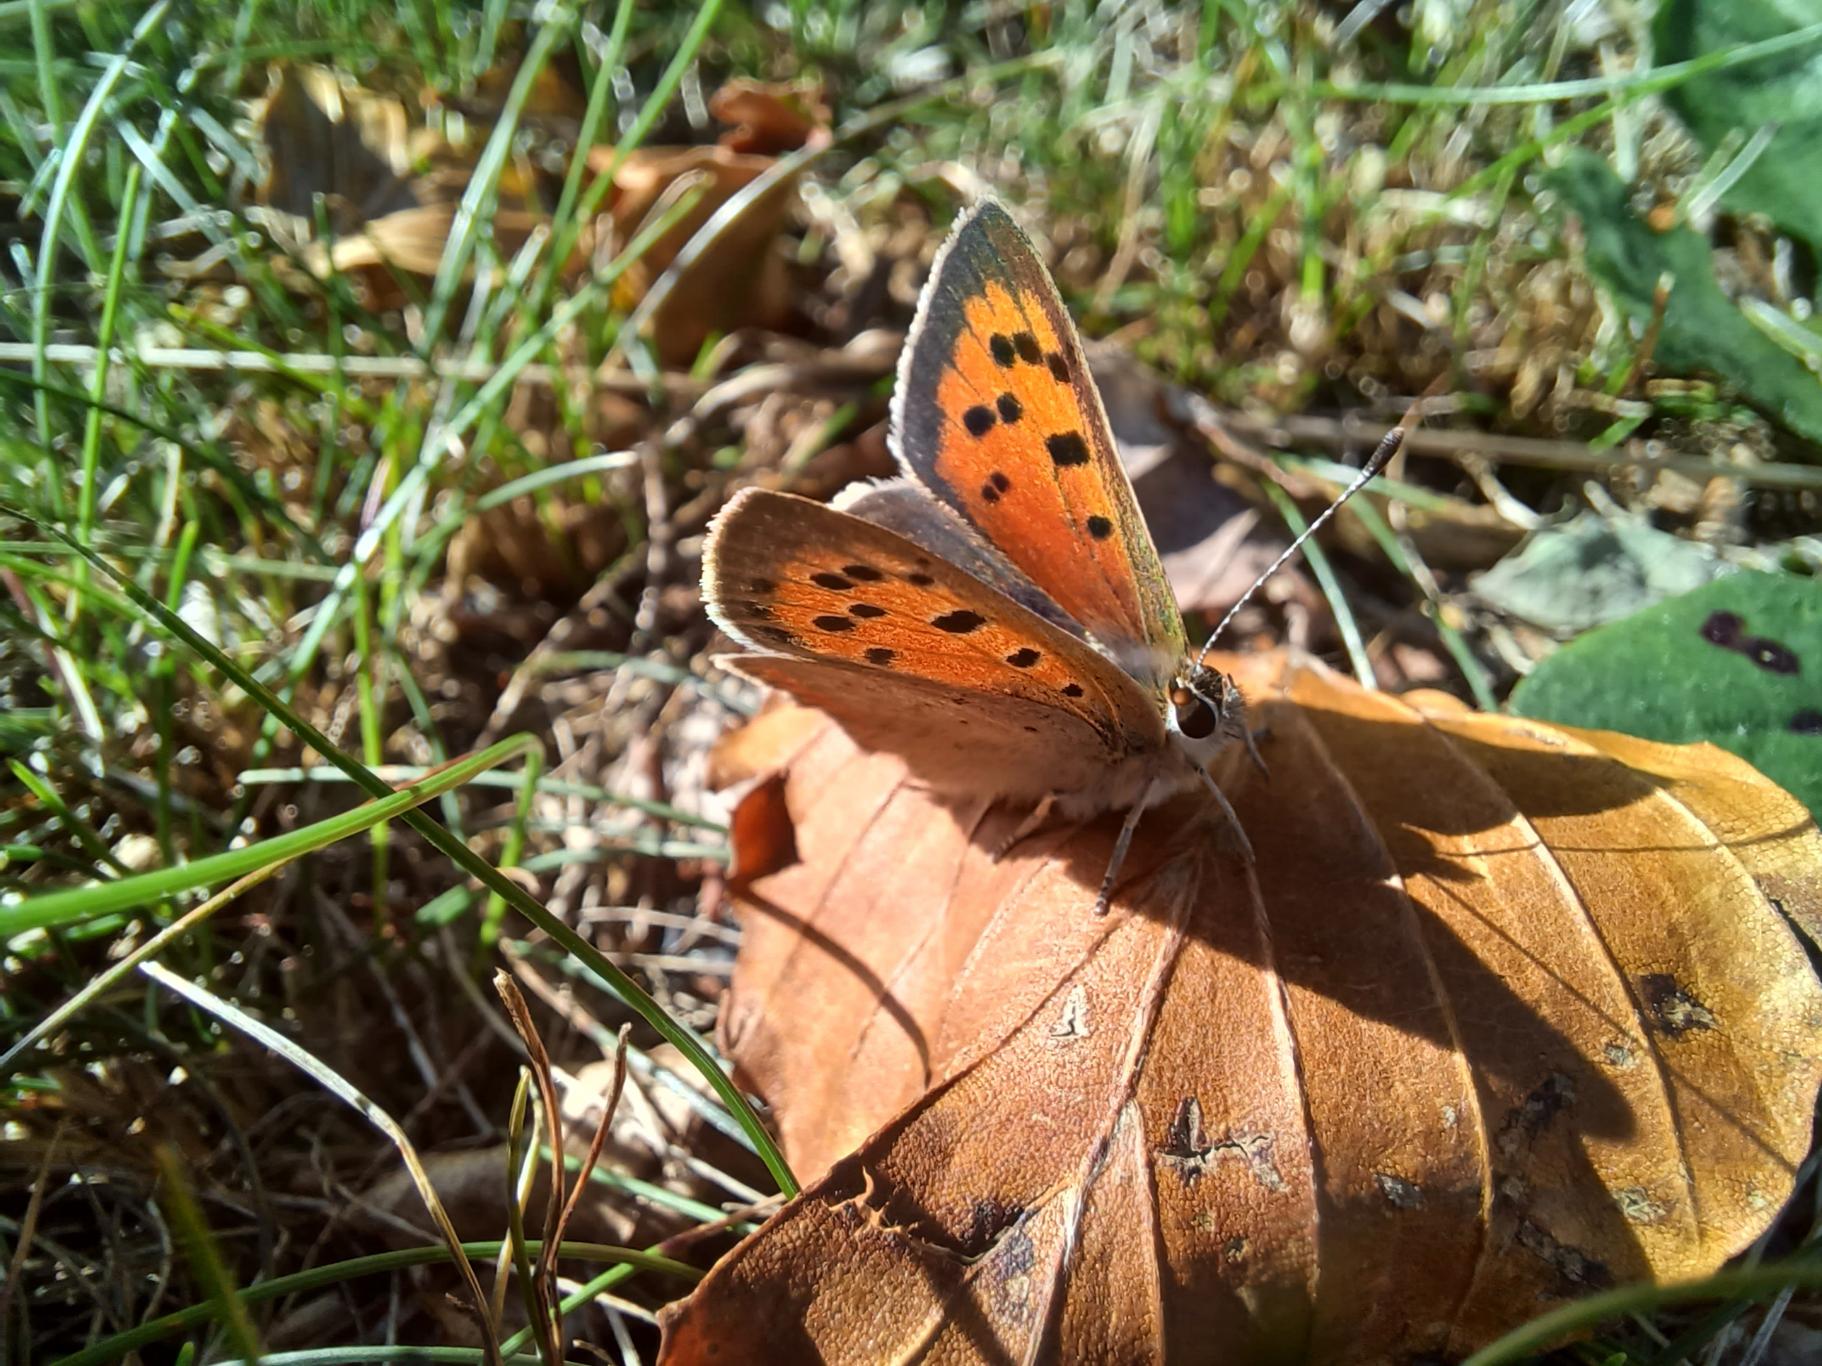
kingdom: Animalia
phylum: Arthropoda
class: Insecta
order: Lepidoptera
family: Lycaenidae
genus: Lycaena
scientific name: Lycaena phlaeas
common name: Lille ildfugl
